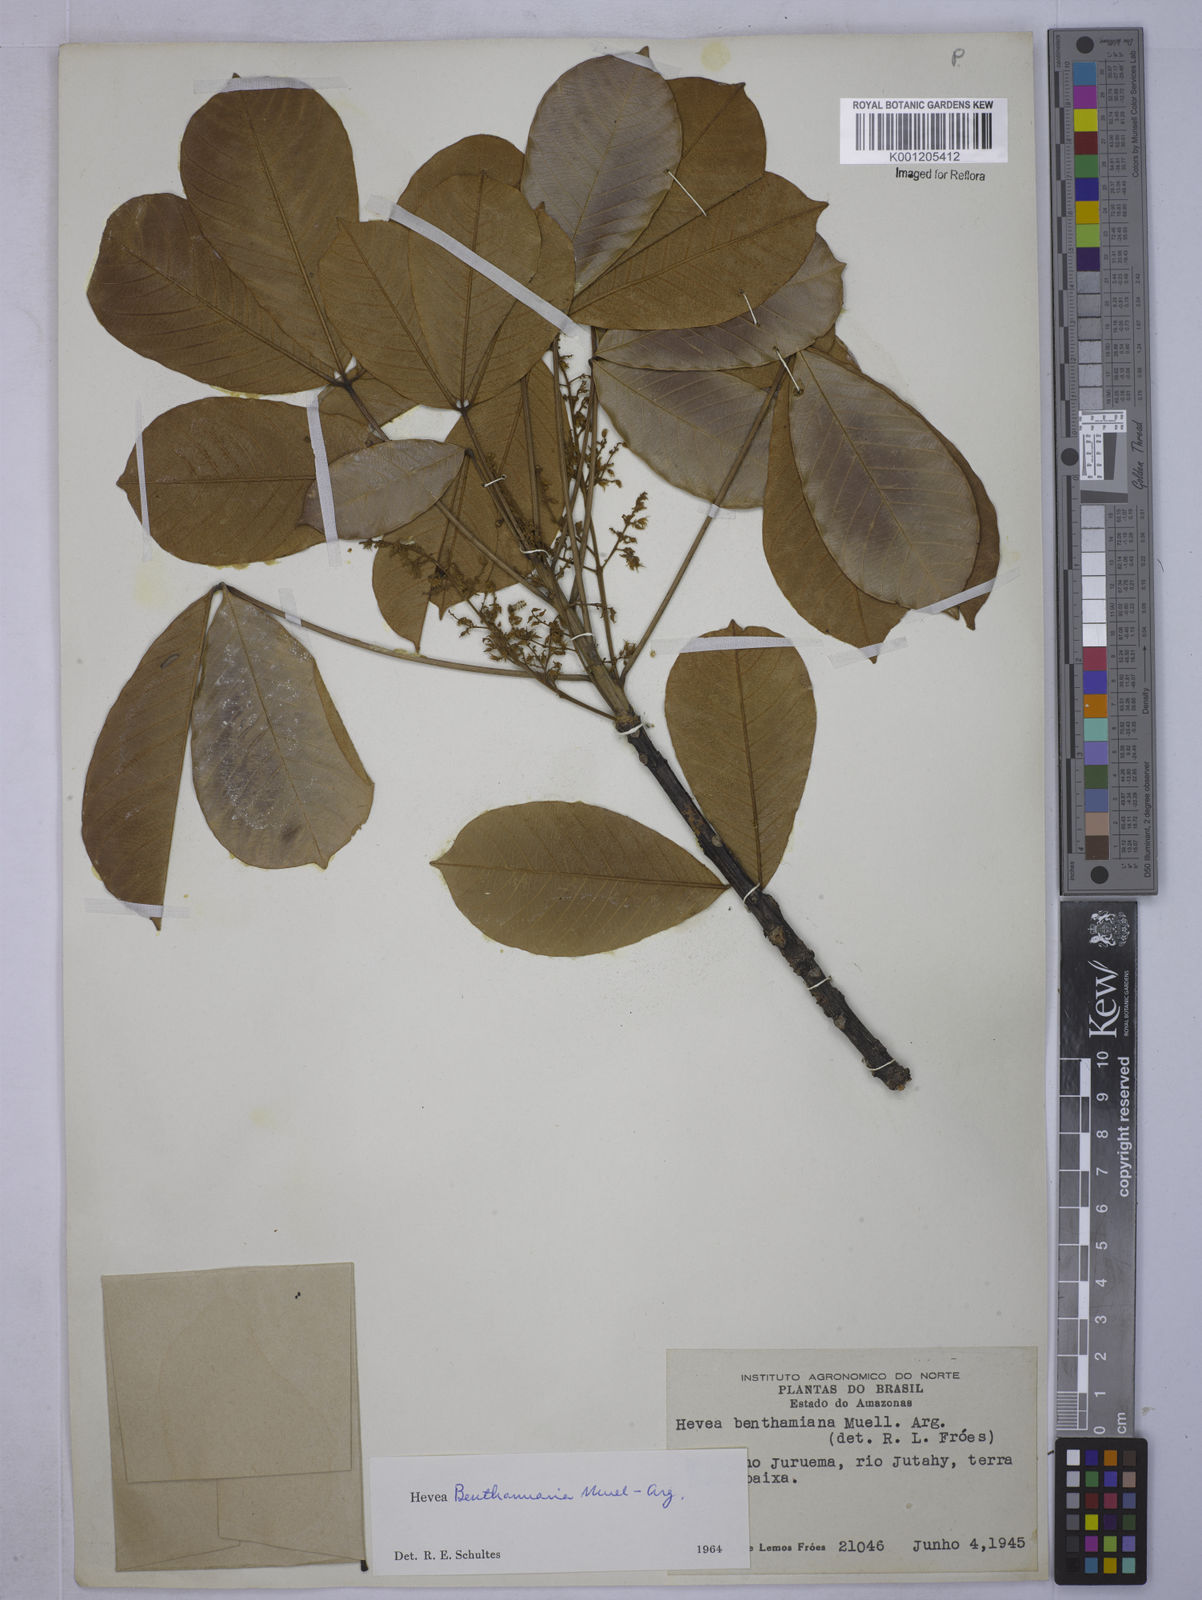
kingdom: Plantae
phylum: Tracheophyta
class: Magnoliopsida
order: Malpighiales
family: Euphorbiaceae
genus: Hevea
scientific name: Hevea
